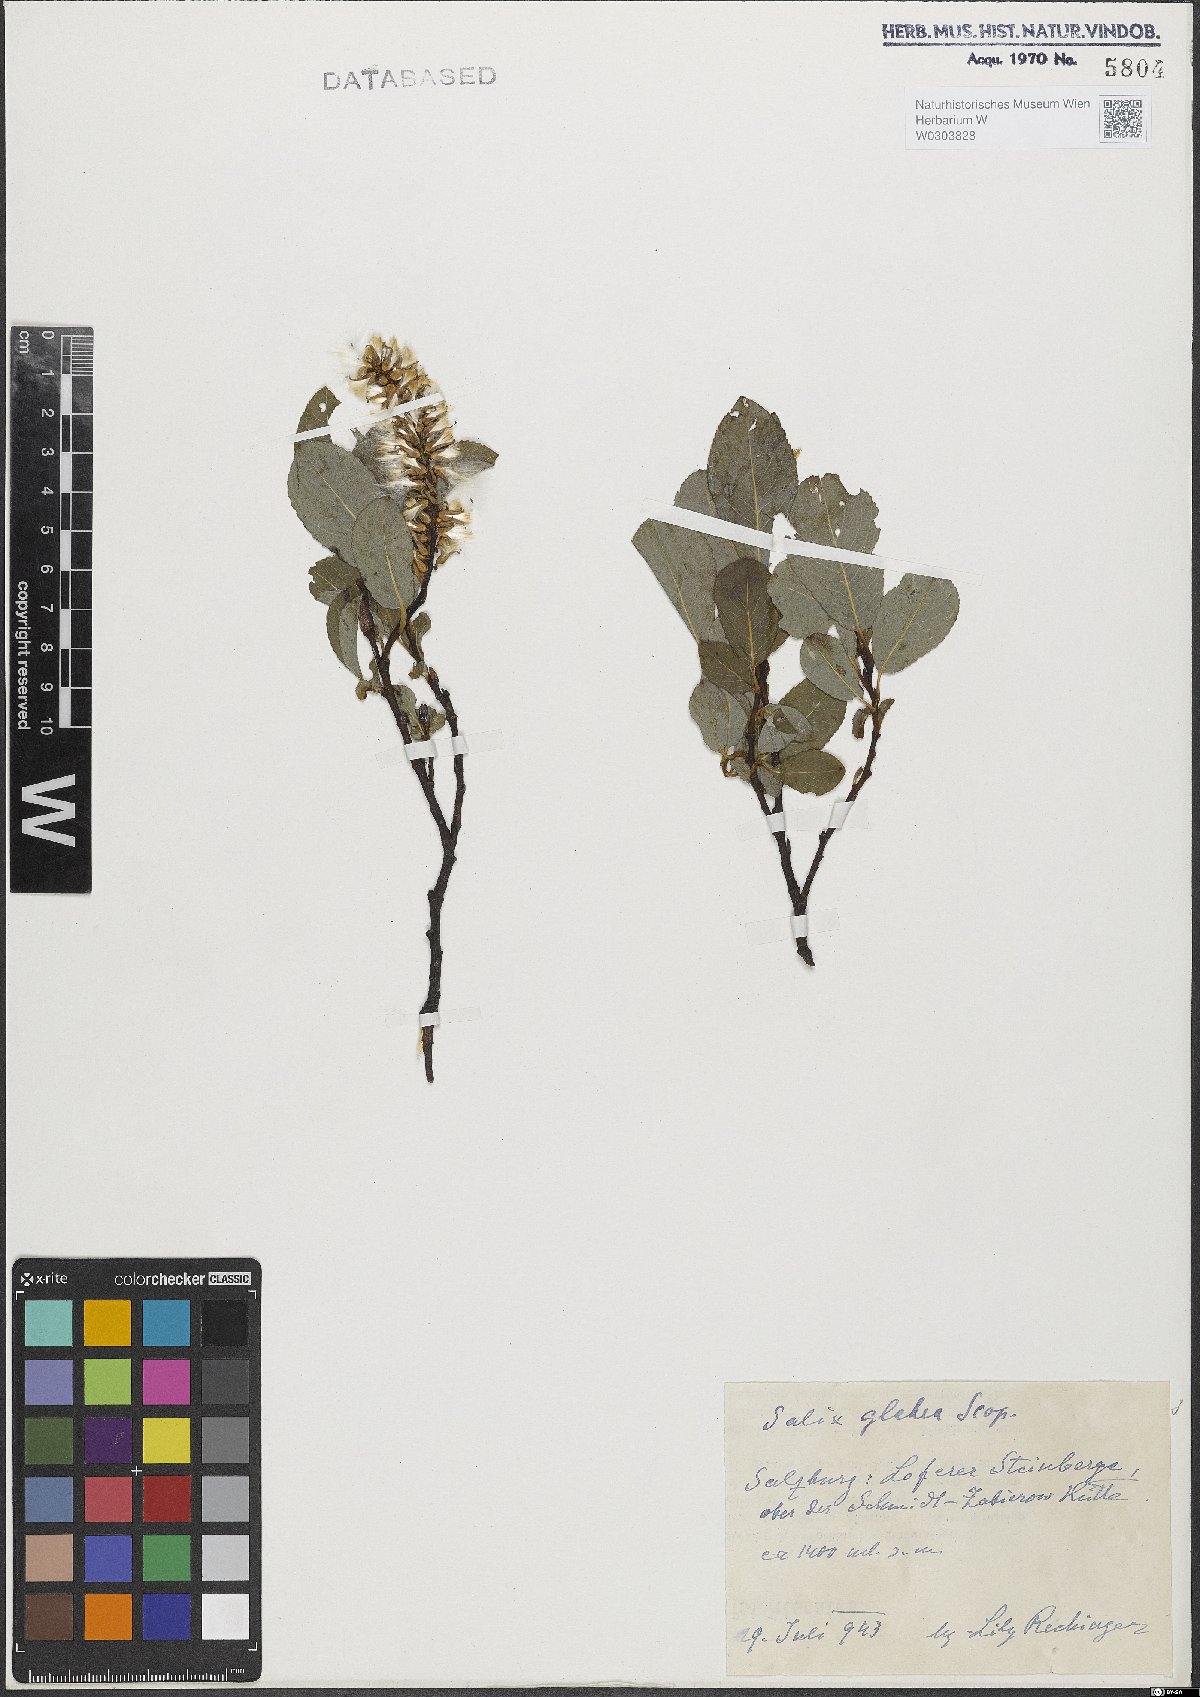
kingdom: Plantae
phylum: Tracheophyta
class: Magnoliopsida
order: Malpighiales
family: Salicaceae
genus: Salix
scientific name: Salix glabra
